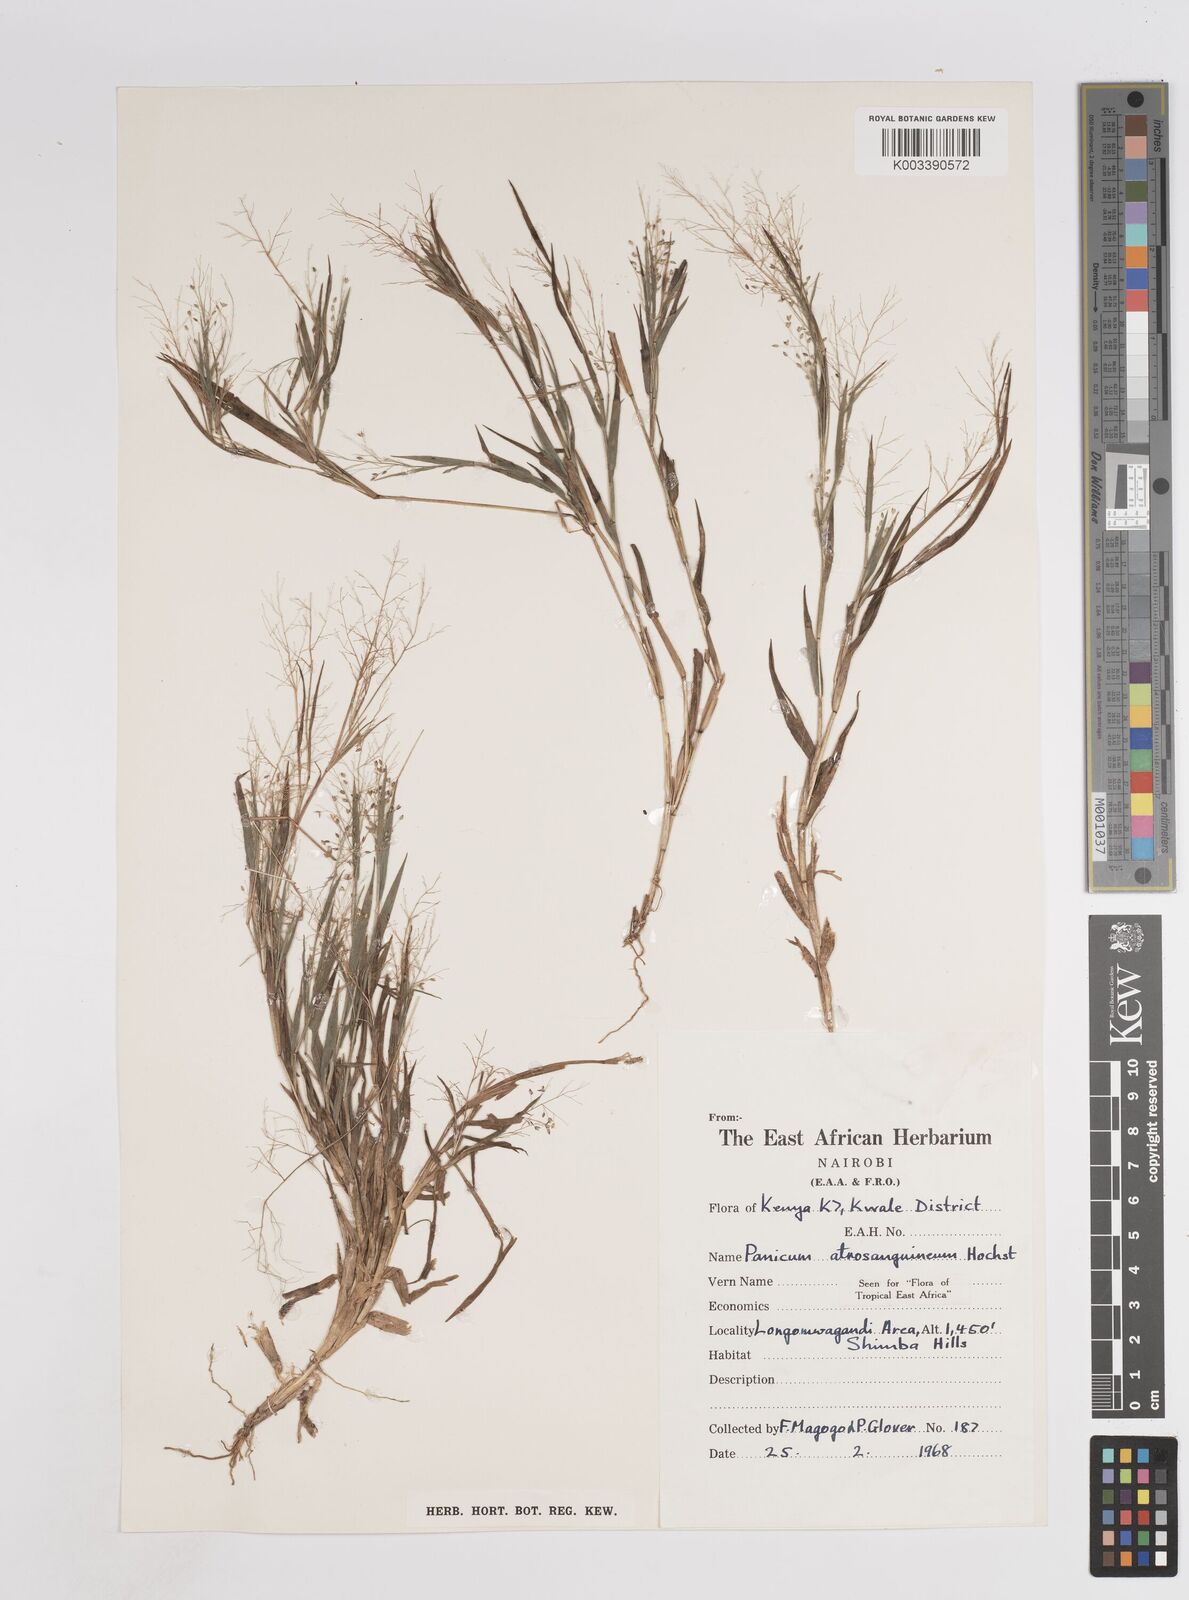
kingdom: Plantae
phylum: Tracheophyta
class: Liliopsida
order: Poales
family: Poaceae
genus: Panicum
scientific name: Panicum atrosanguineum
